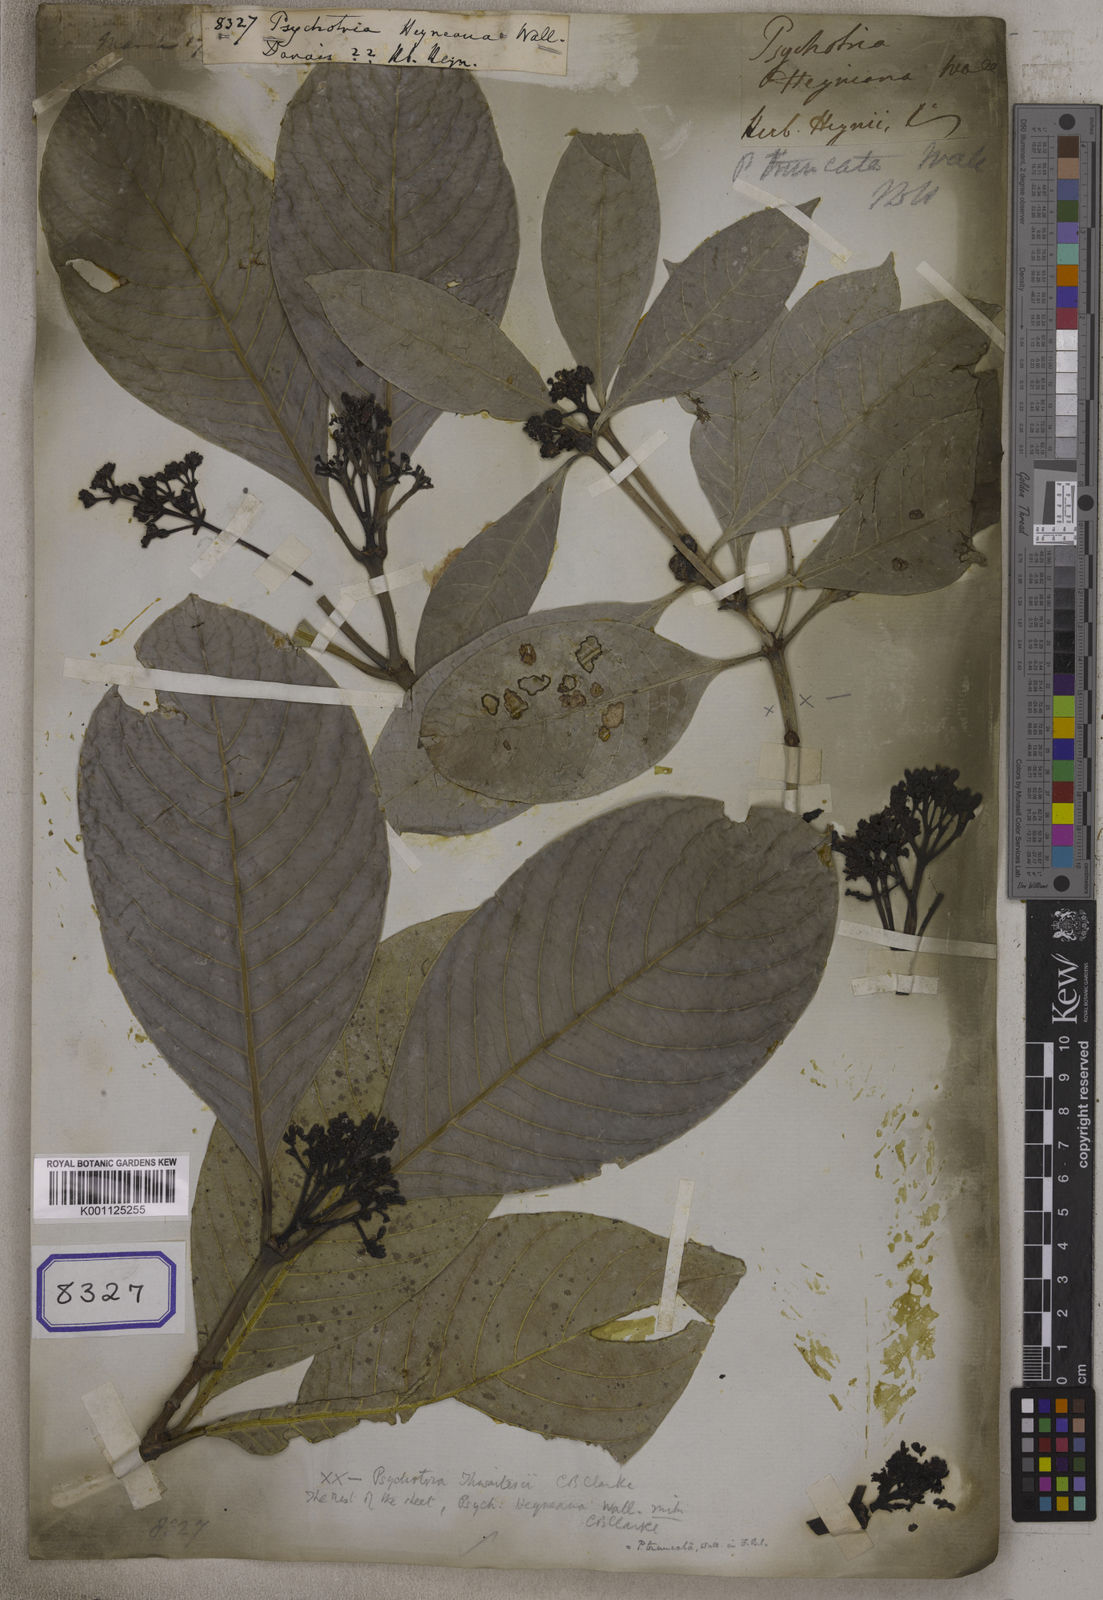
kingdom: Plantae
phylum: Tracheophyta
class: Magnoliopsida
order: Gentianales
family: Rubiaceae
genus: Psychotria
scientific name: Psychotria truncata
